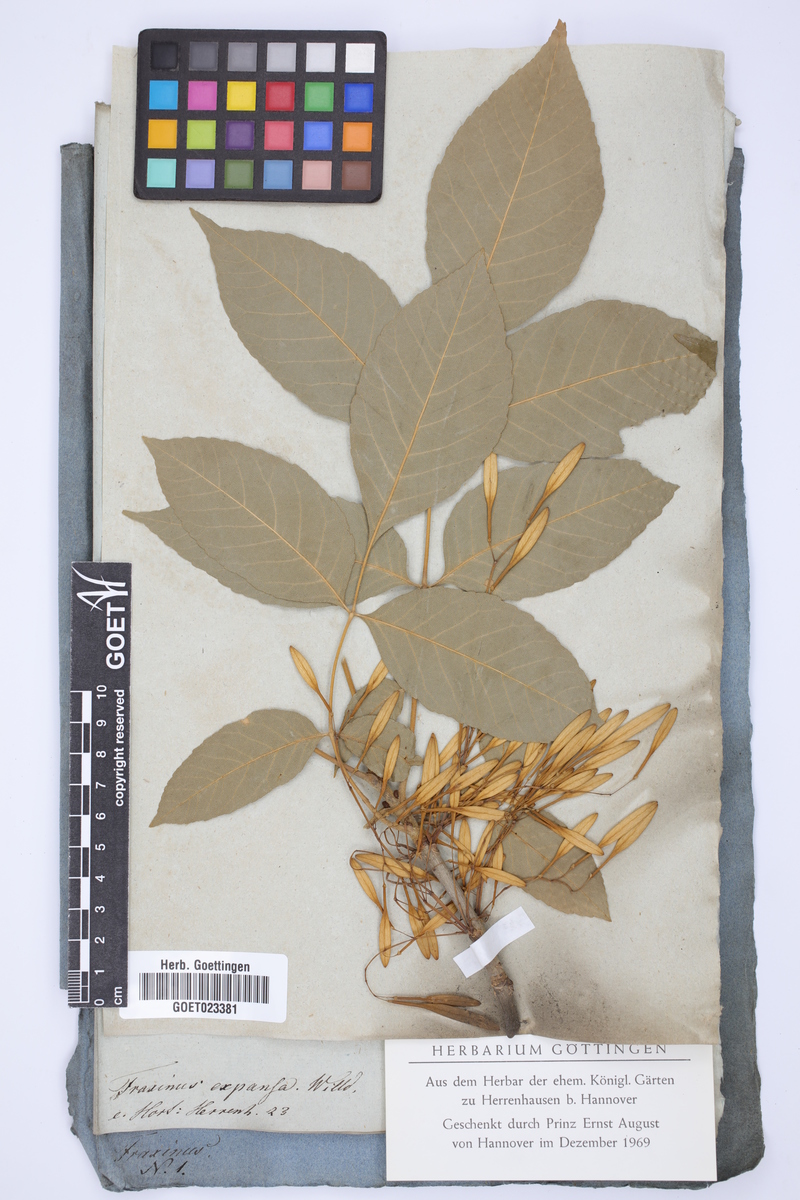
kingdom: Plantae
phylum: Tracheophyta
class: Magnoliopsida
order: Lamiales
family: Oleaceae
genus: Fraxinus
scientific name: Fraxinus pennsylvanica
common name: Green ash
